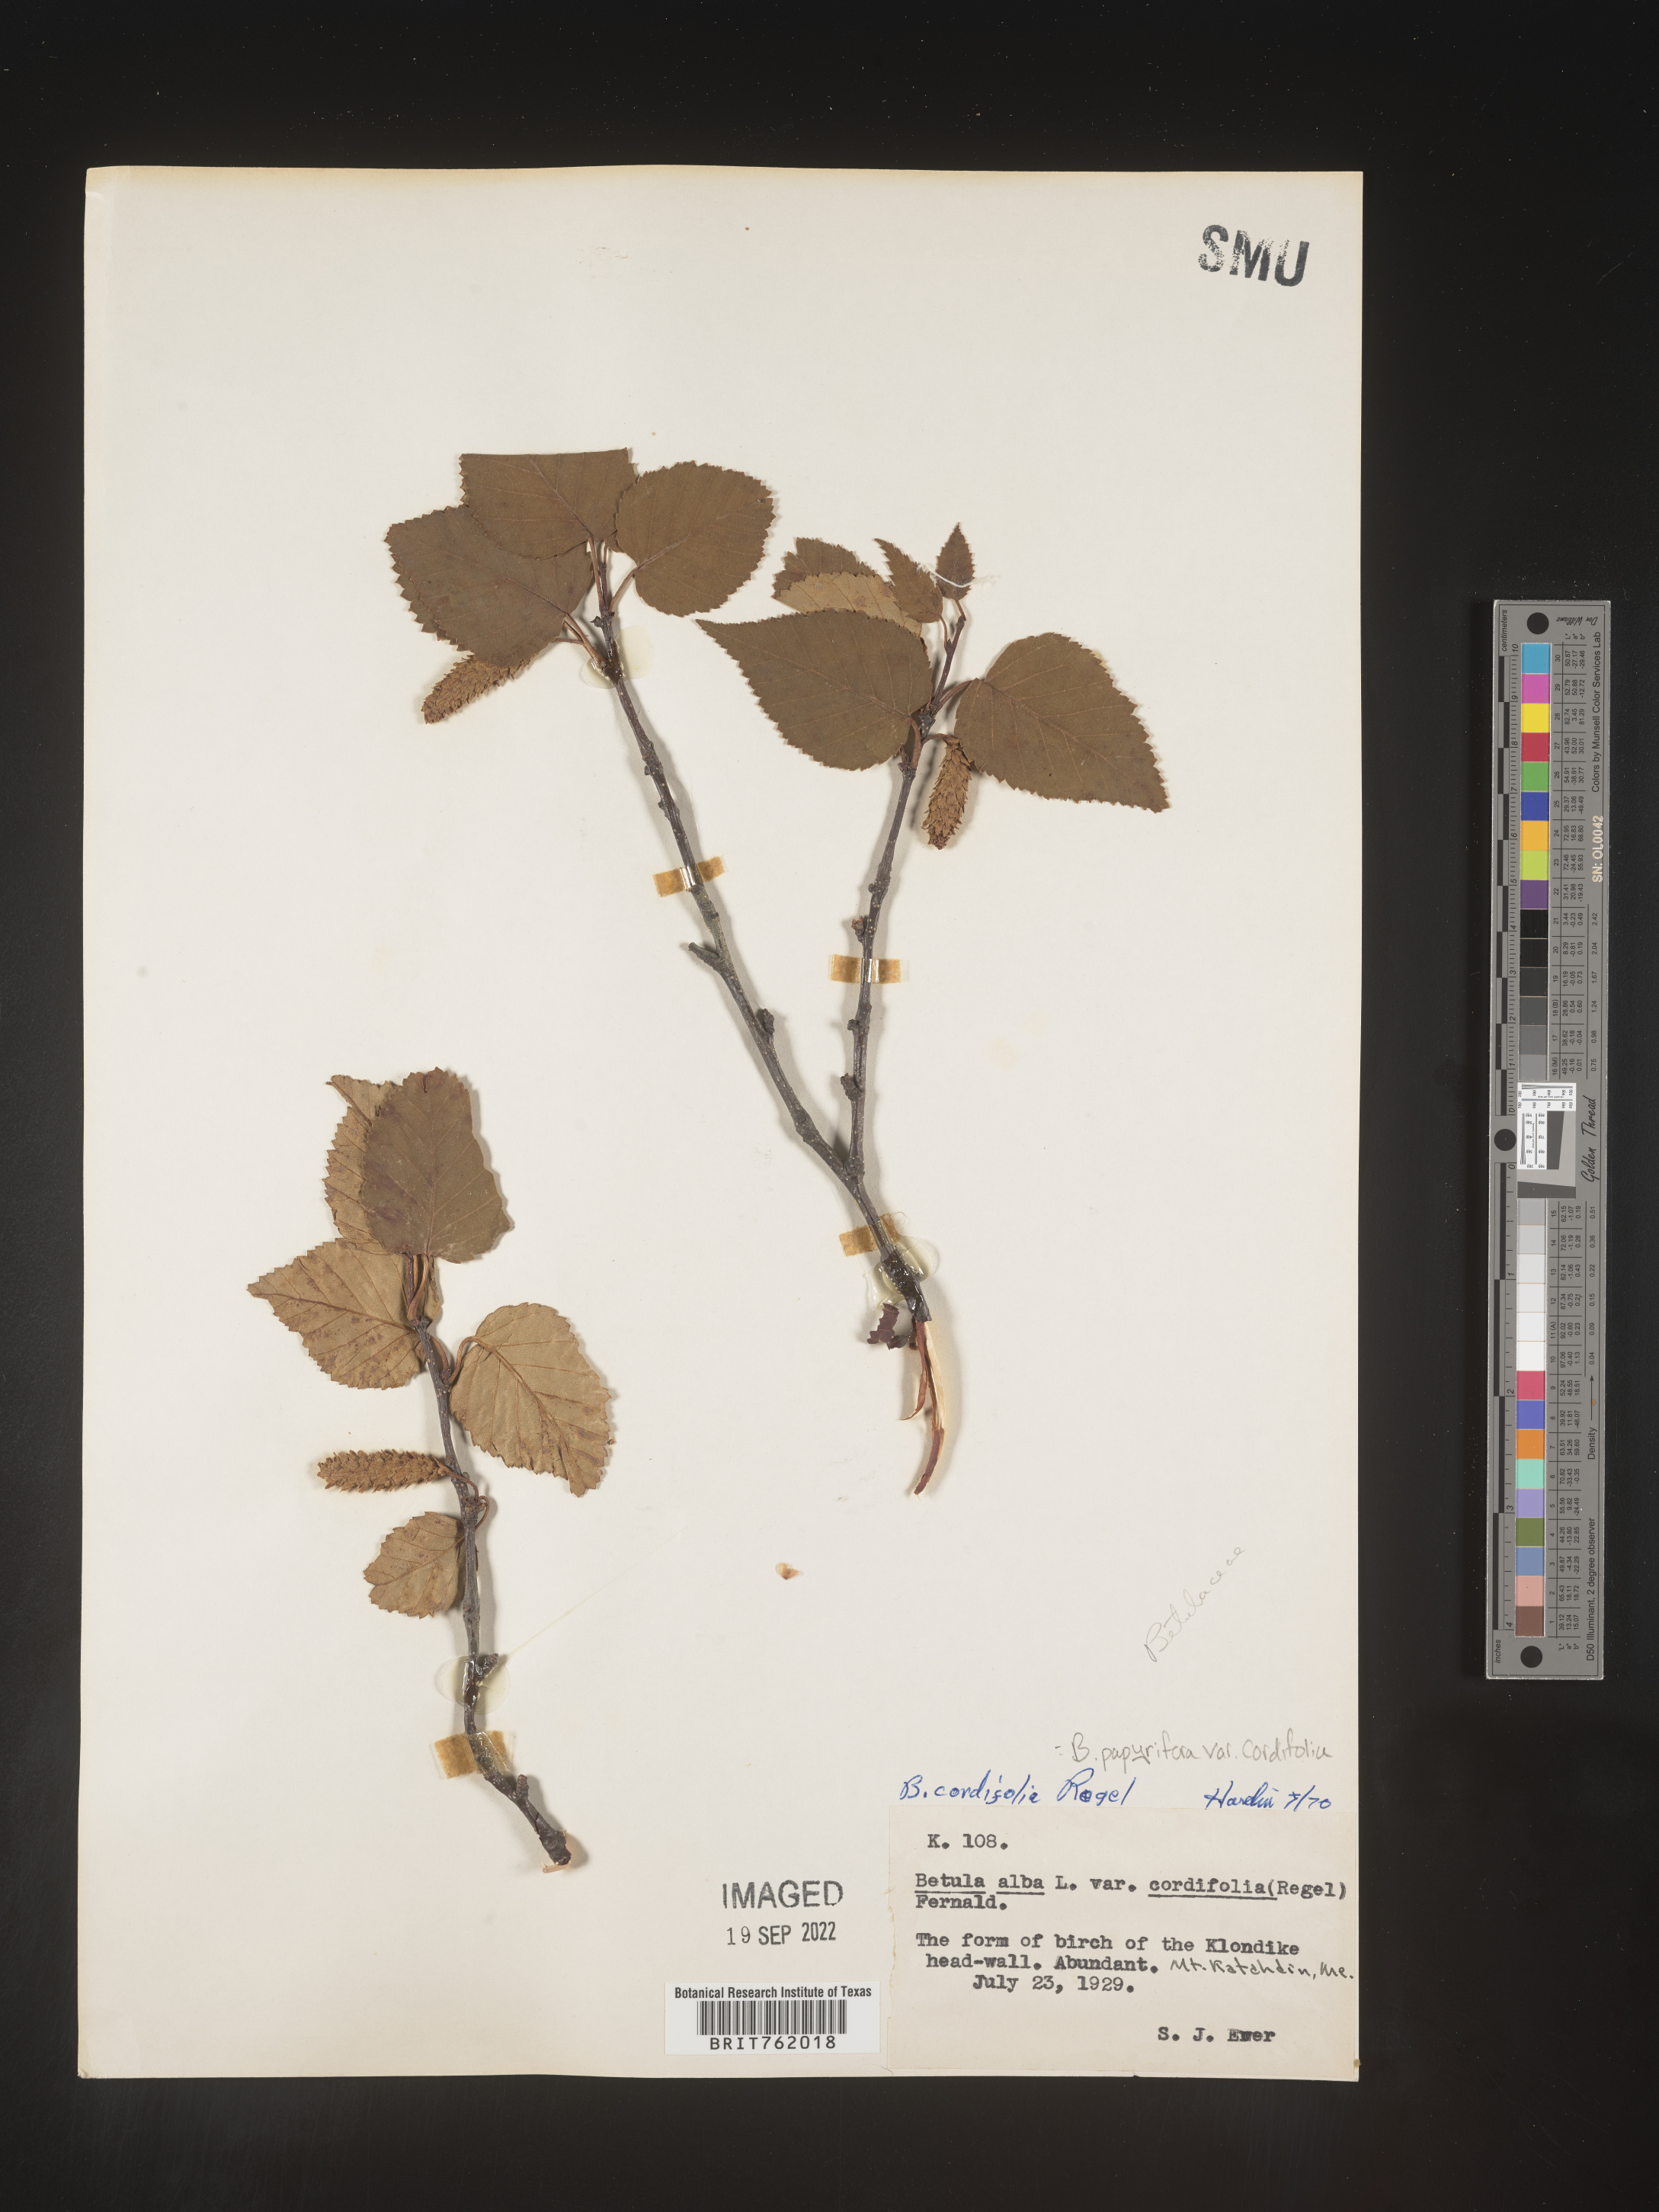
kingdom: Plantae
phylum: Tracheophyta
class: Magnoliopsida
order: Fagales
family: Betulaceae
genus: Betula
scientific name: Betula papyrifera
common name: Paper birch
